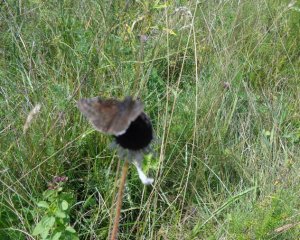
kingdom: Animalia
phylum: Arthropoda
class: Insecta
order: Lepidoptera
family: Hesperiidae
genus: Gesta
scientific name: Gesta
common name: Wild Indigo Duskywing
